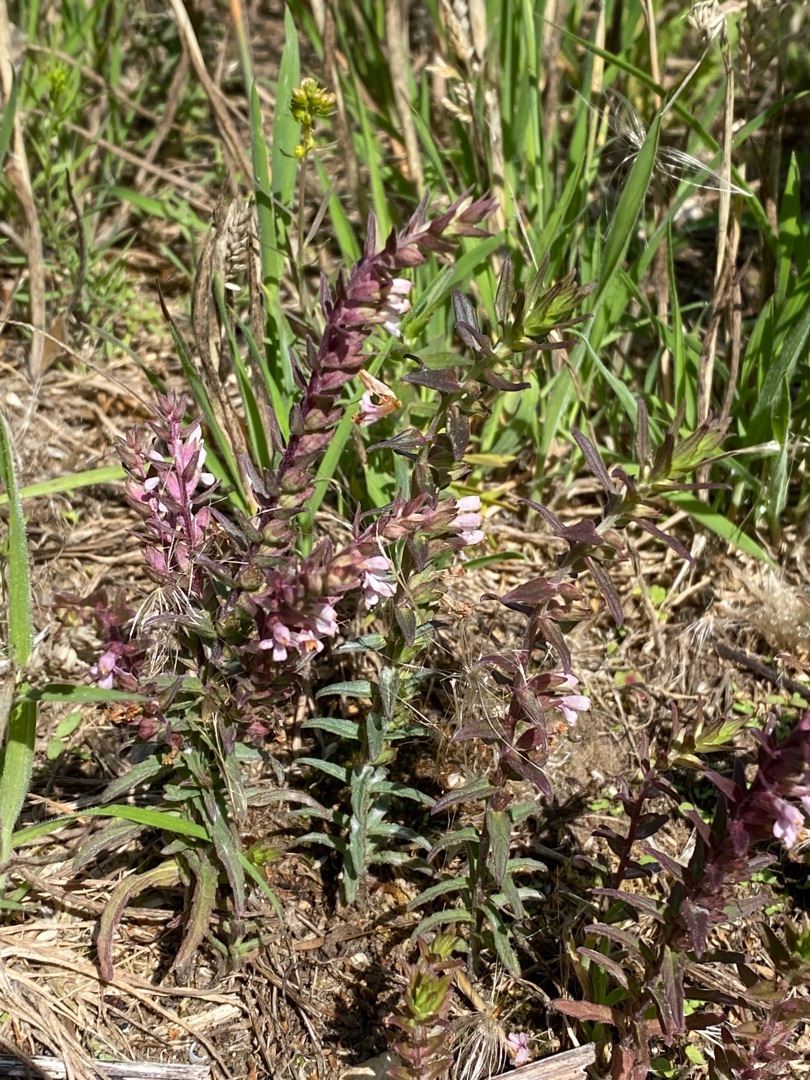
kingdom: Plantae
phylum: Tracheophyta
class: Magnoliopsida
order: Lamiales
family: Orobanchaceae
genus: Odontites
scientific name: Odontites vernus
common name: Mark-rødtop
